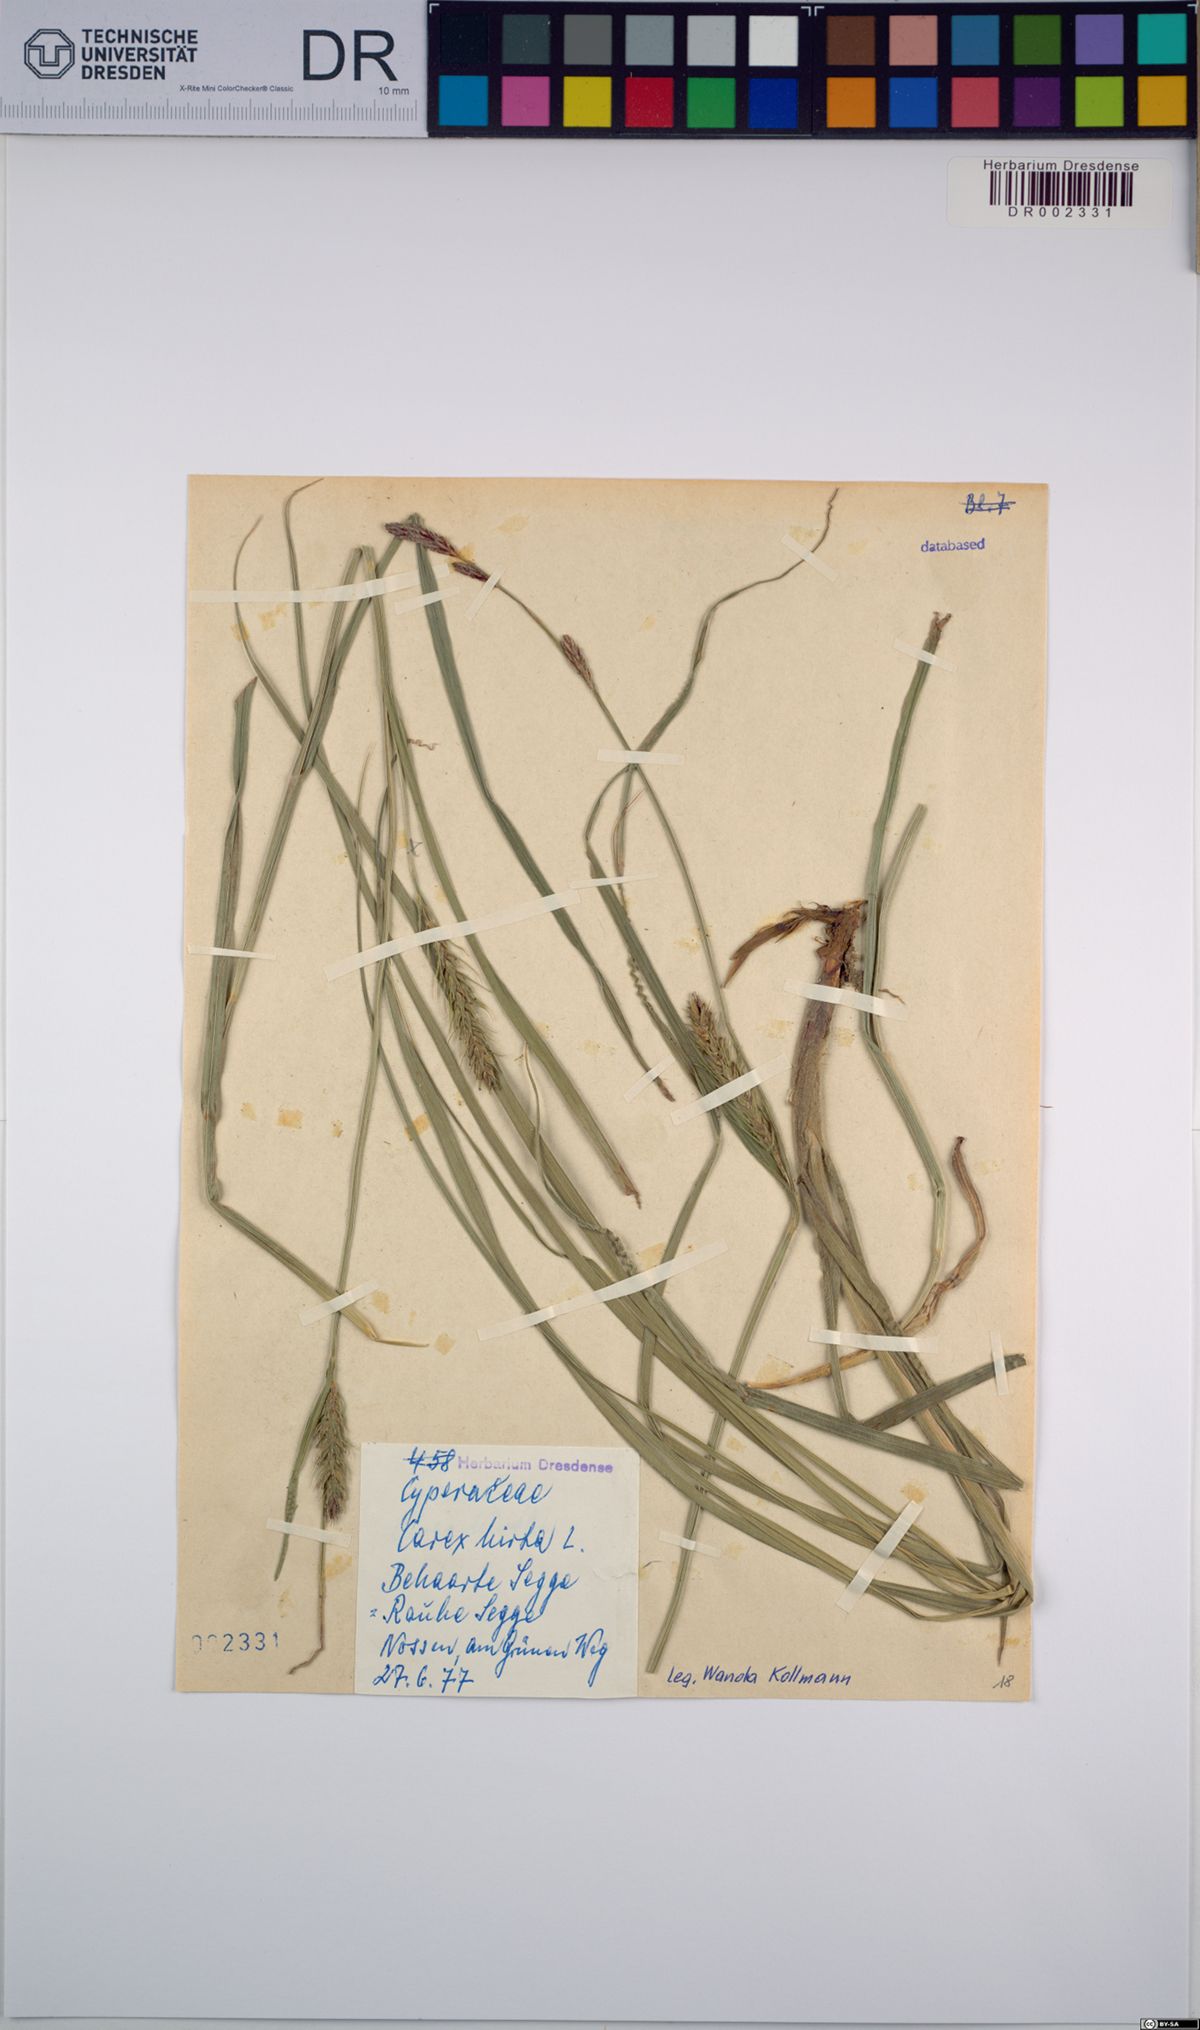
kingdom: Plantae
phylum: Tracheophyta
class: Liliopsida
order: Poales
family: Cyperaceae
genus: Carex
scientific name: Carex hirta
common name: Hairy sedge
